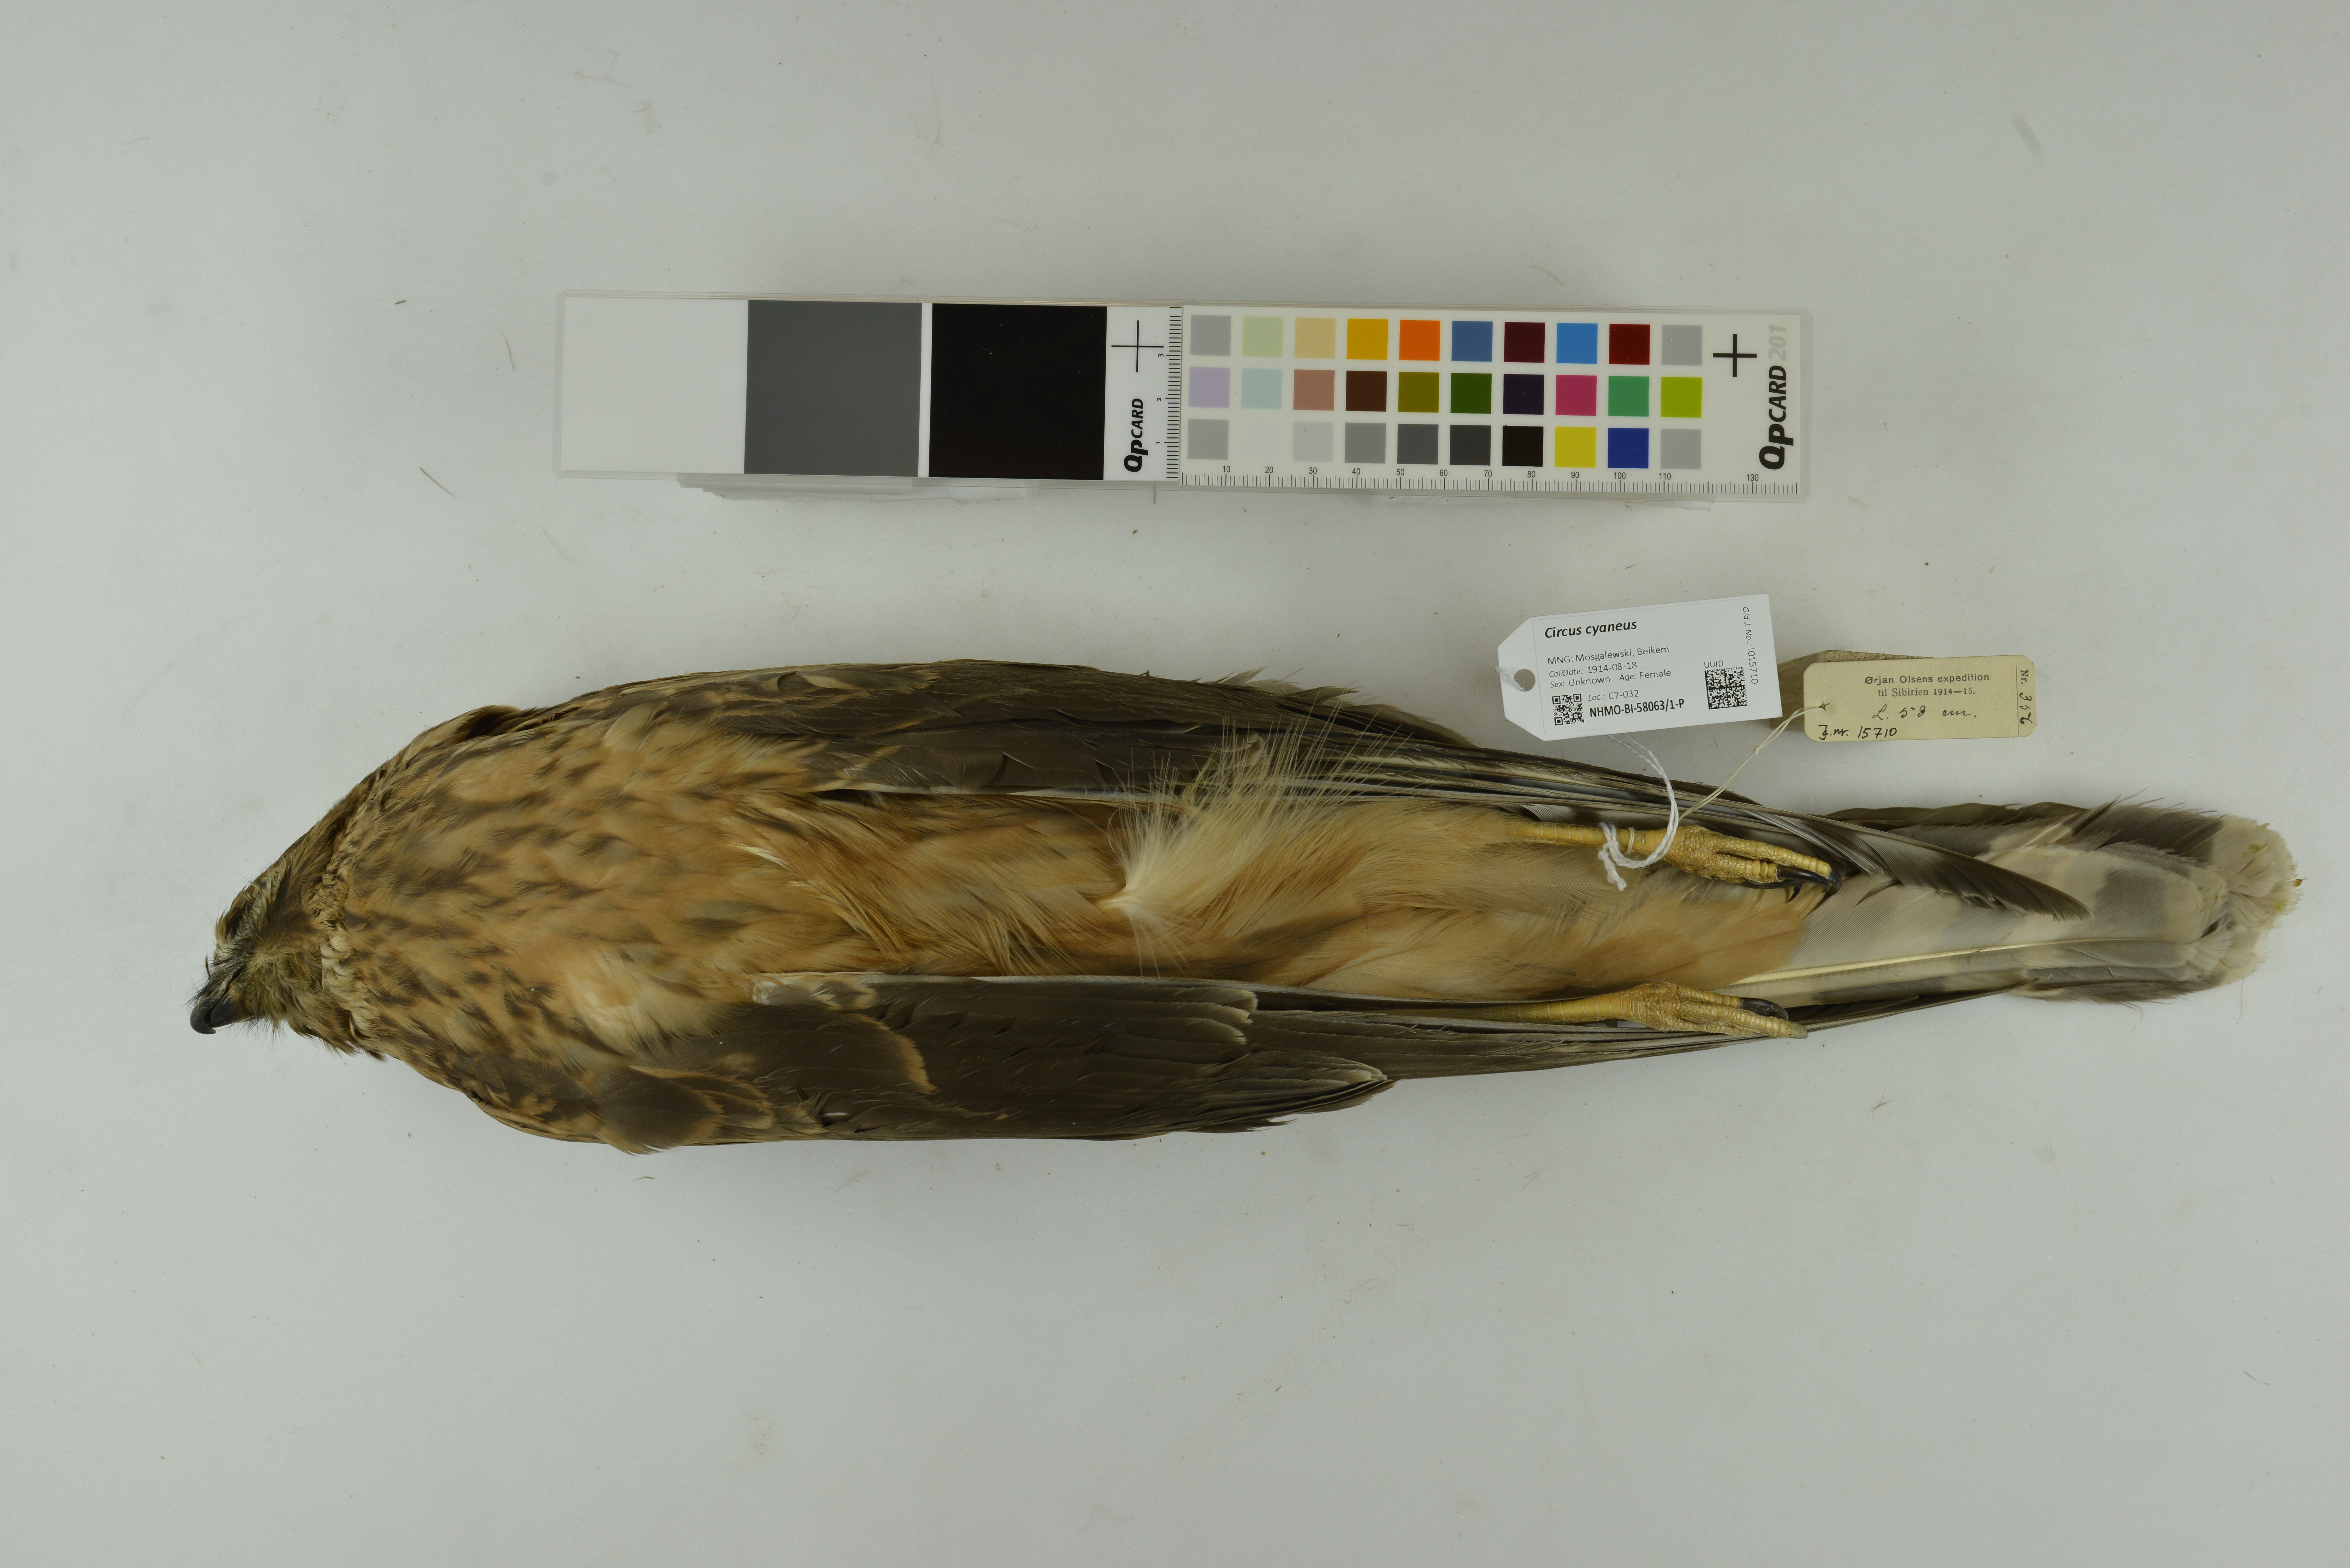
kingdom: Animalia
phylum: Chordata
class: Aves
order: Accipitriformes
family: Accipitridae
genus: Circus
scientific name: Circus cyaneus
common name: Hen harrier
